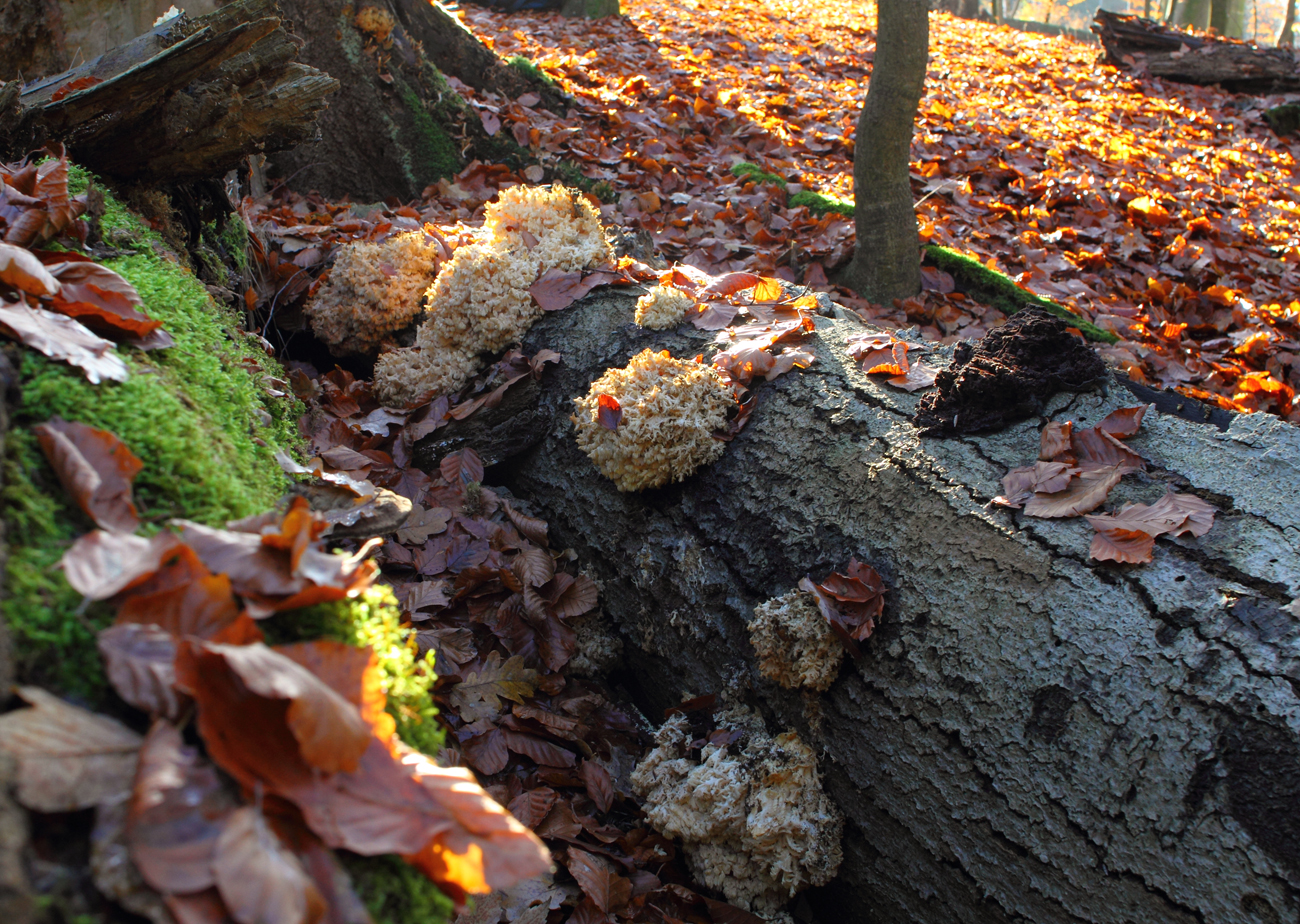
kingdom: Fungi
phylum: Basidiomycota
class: Agaricomycetes
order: Russulales
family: Hericiaceae
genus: Hericium
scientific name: Hericium coralloides
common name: koralpigsvamp
